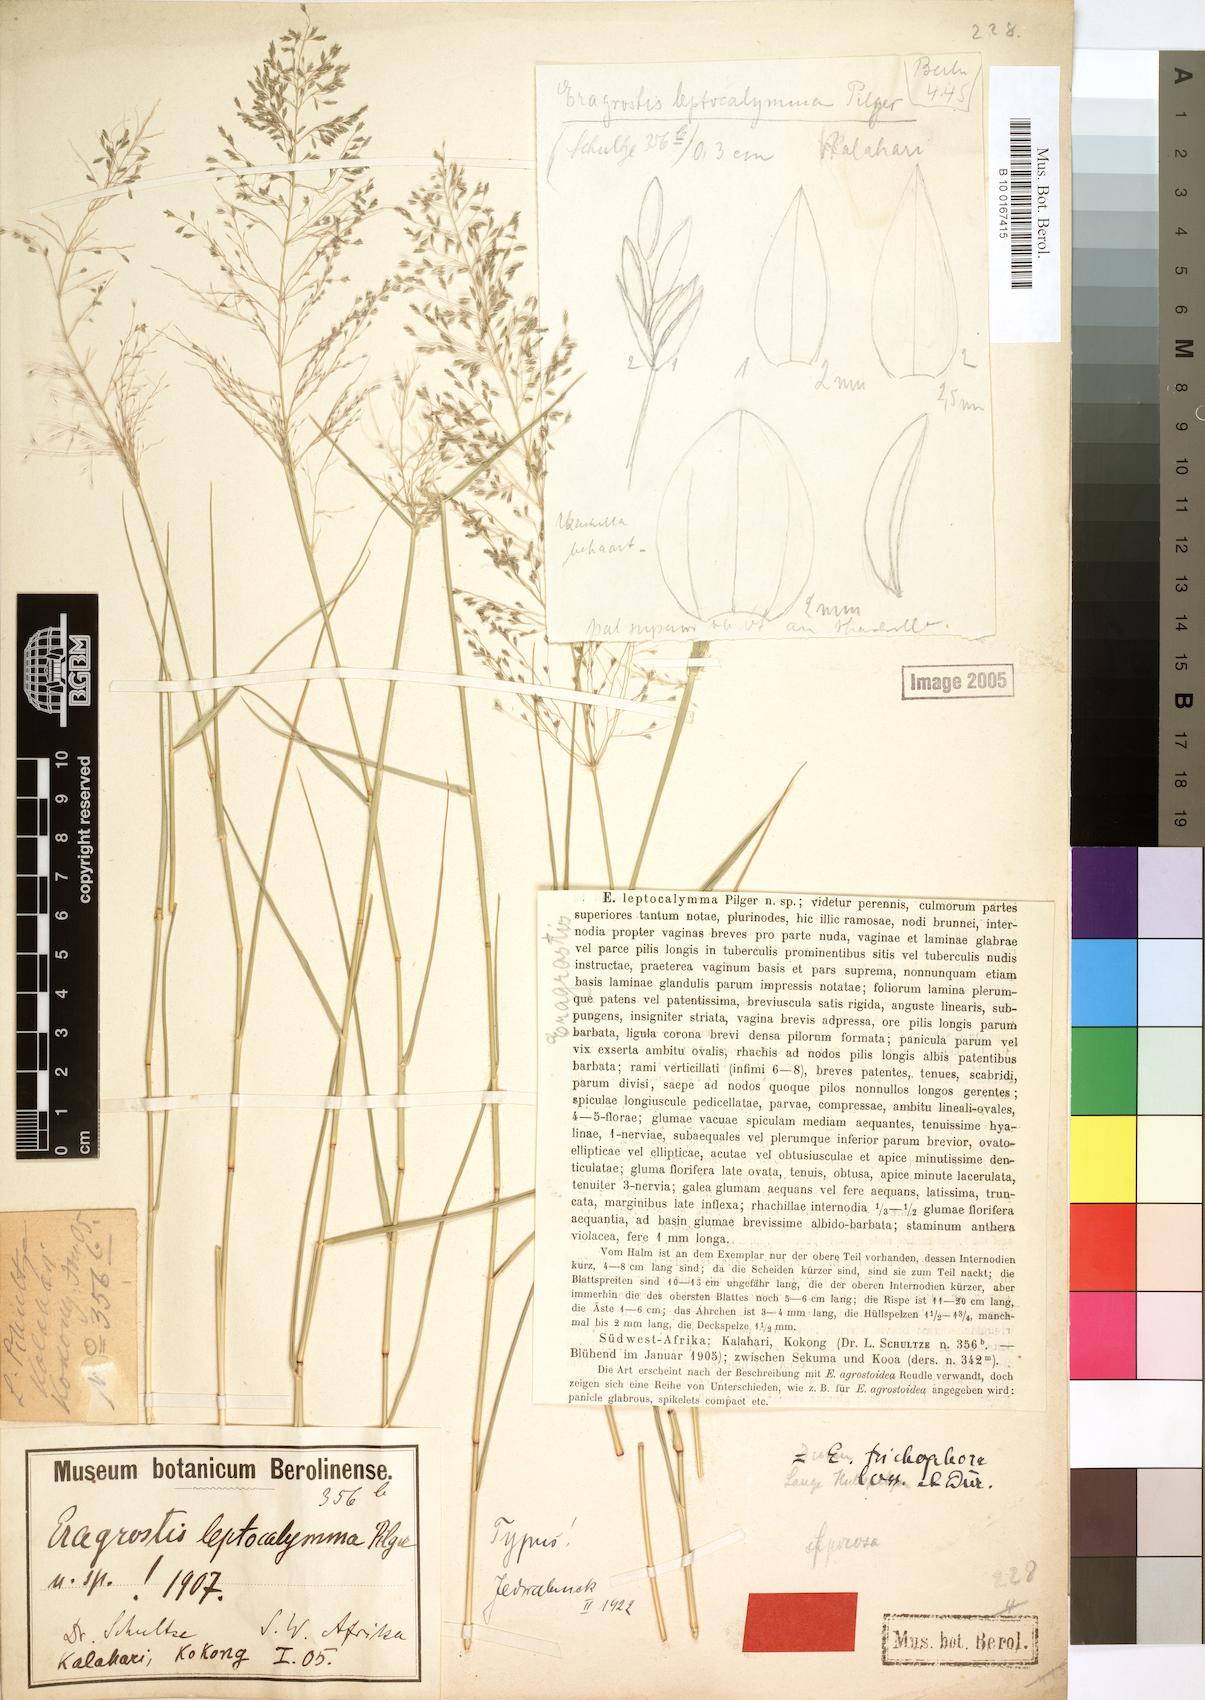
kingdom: Plantae
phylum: Tracheophyta
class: Liliopsida
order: Poales
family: Poaceae
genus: Eragrostis
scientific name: Eragrostis cylindriflora
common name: Cylinderflower lovegrass
